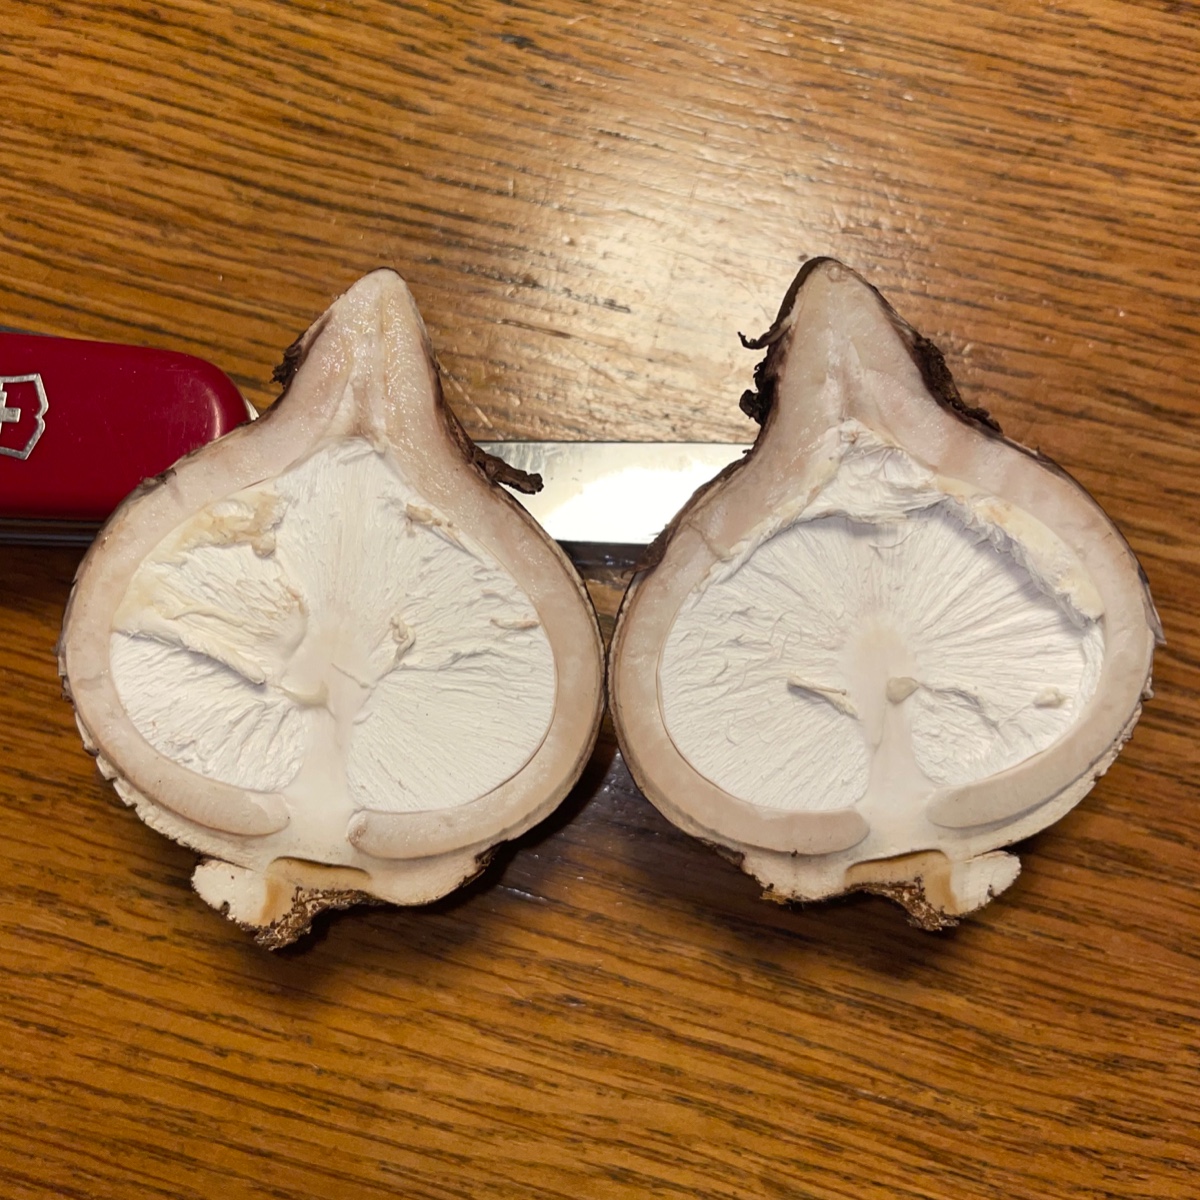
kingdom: Fungi
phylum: Basidiomycota
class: Agaricomycetes
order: Geastrales
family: Geastraceae
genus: Geastrum
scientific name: Geastrum michelianum
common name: kødet stjernebold
